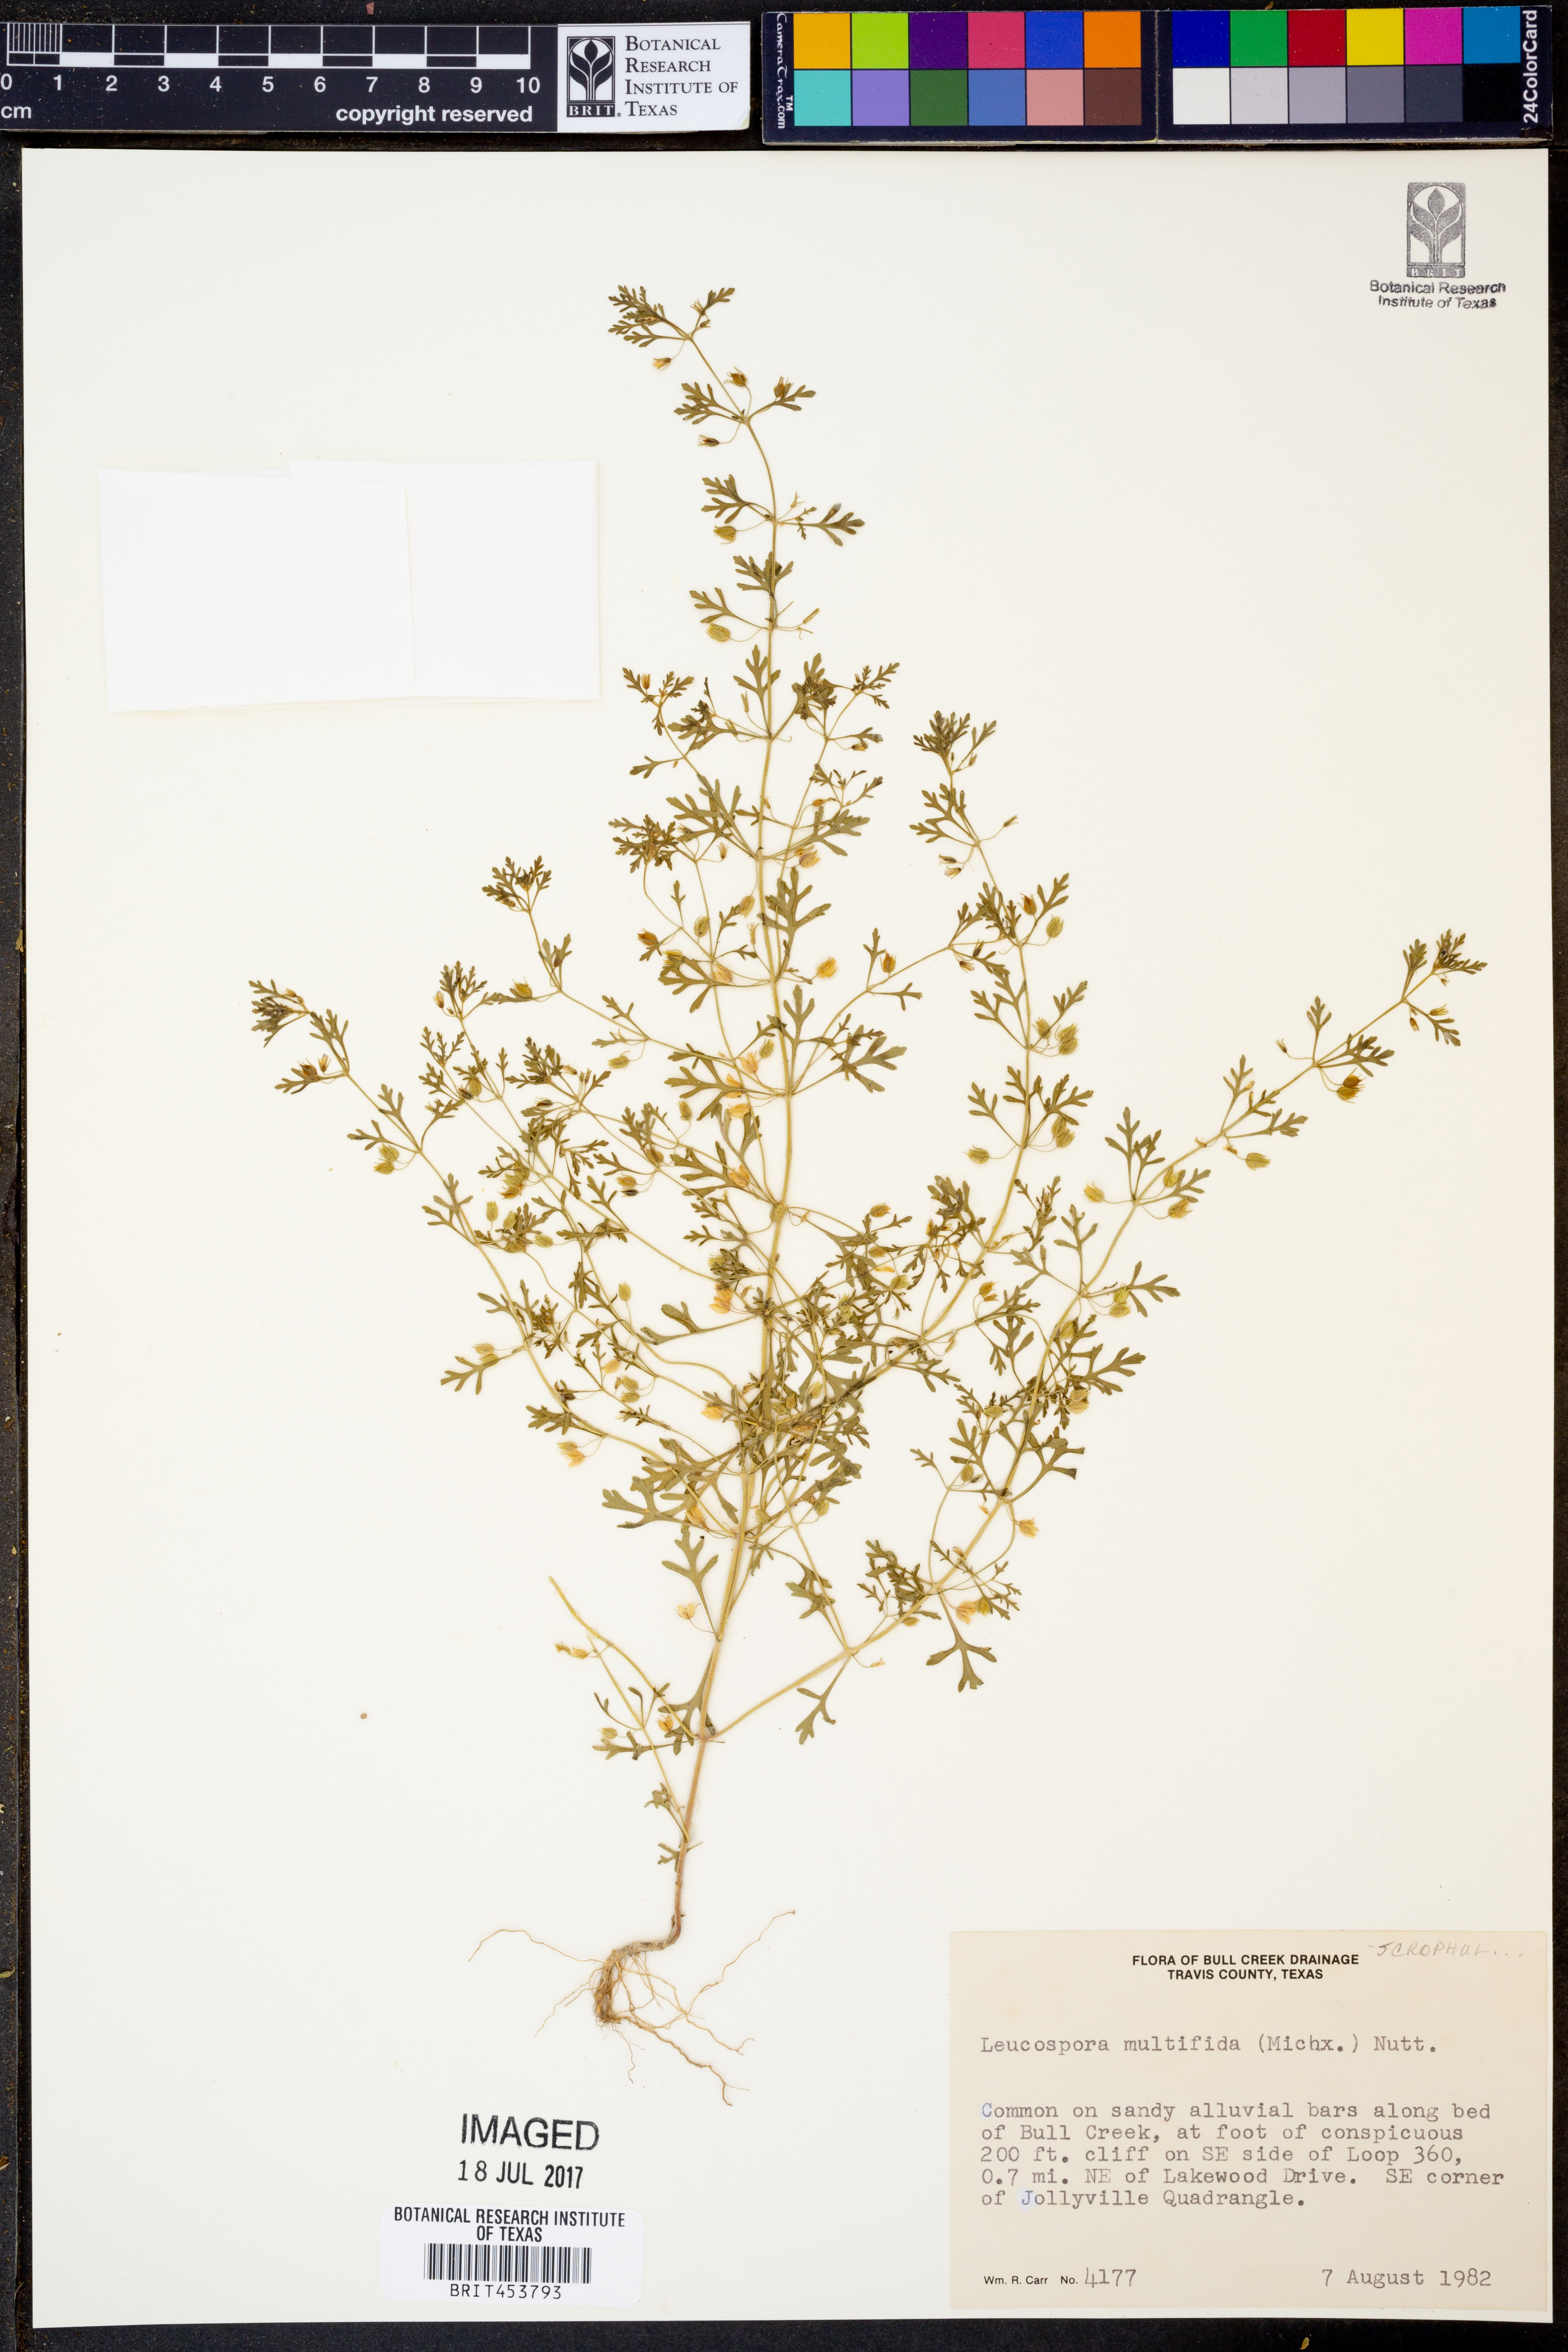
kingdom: Plantae
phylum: Tracheophyta
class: Magnoliopsida
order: Lamiales
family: Plantaginaceae
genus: Leucospora
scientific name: Leucospora multifida
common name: Narrow-leaf paleseed
